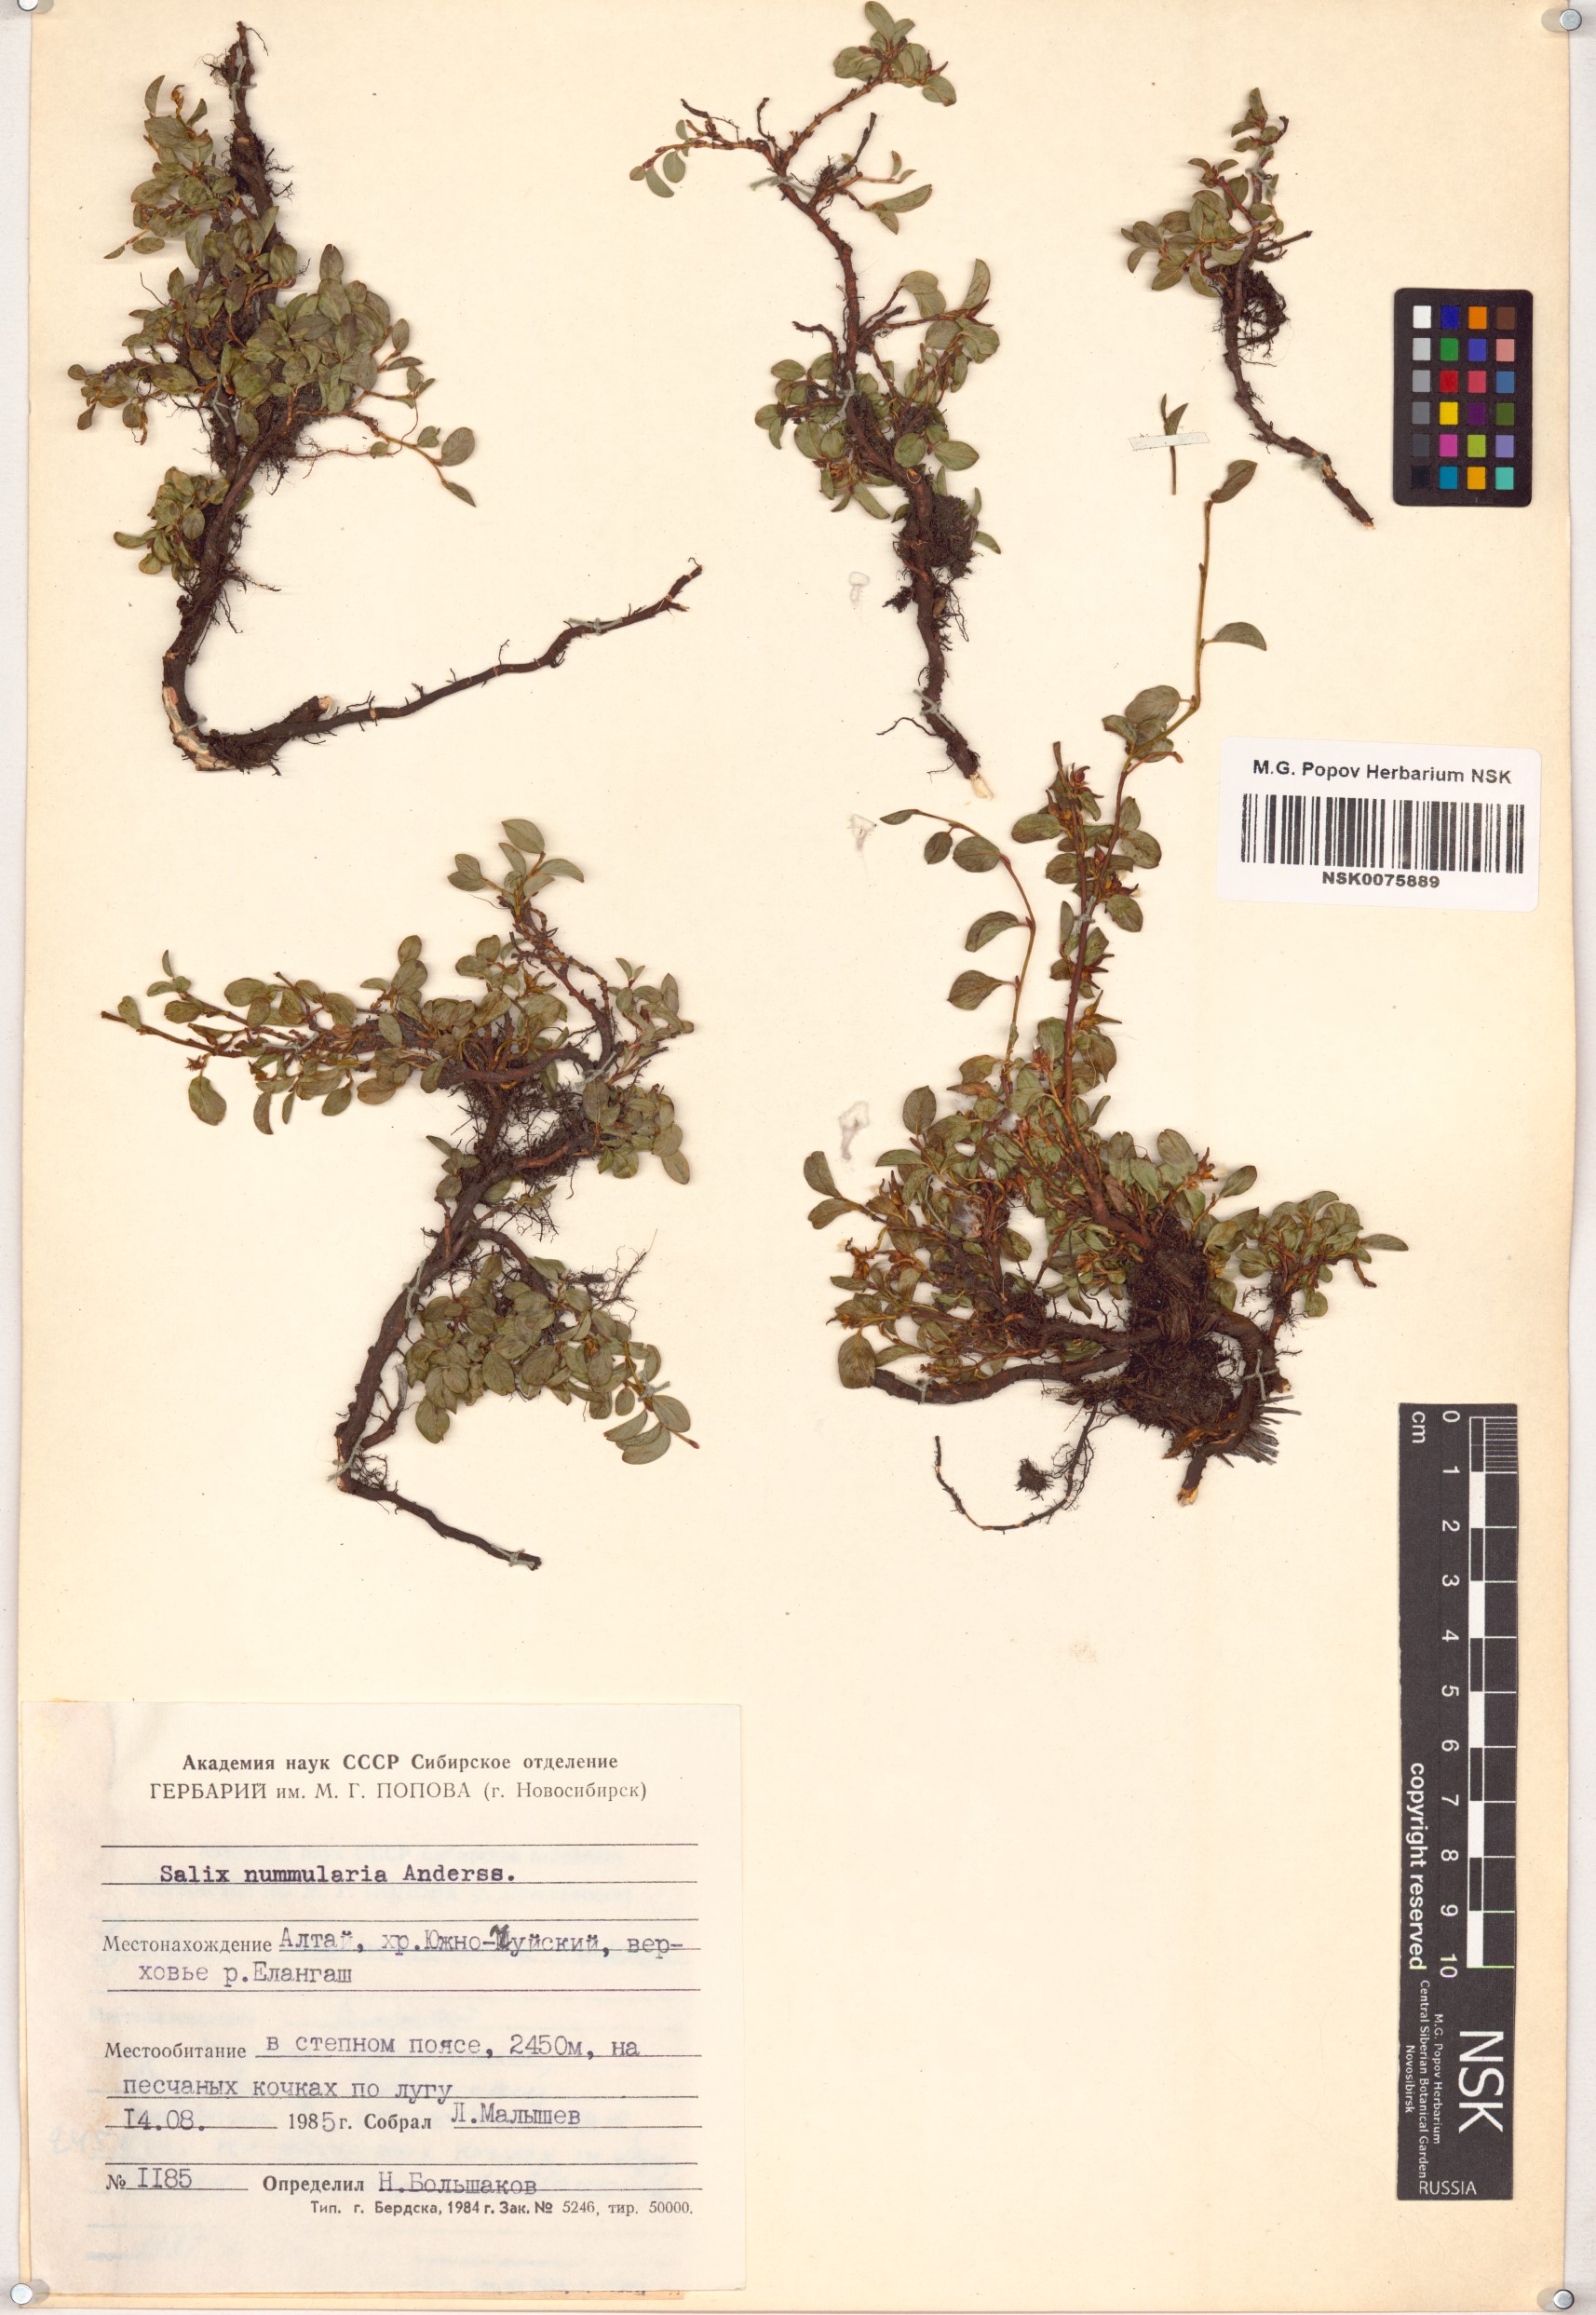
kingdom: Plantae
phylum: Tracheophyta
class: Magnoliopsida
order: Malpighiales
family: Salicaceae
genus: Salix
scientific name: Salix nummularia
